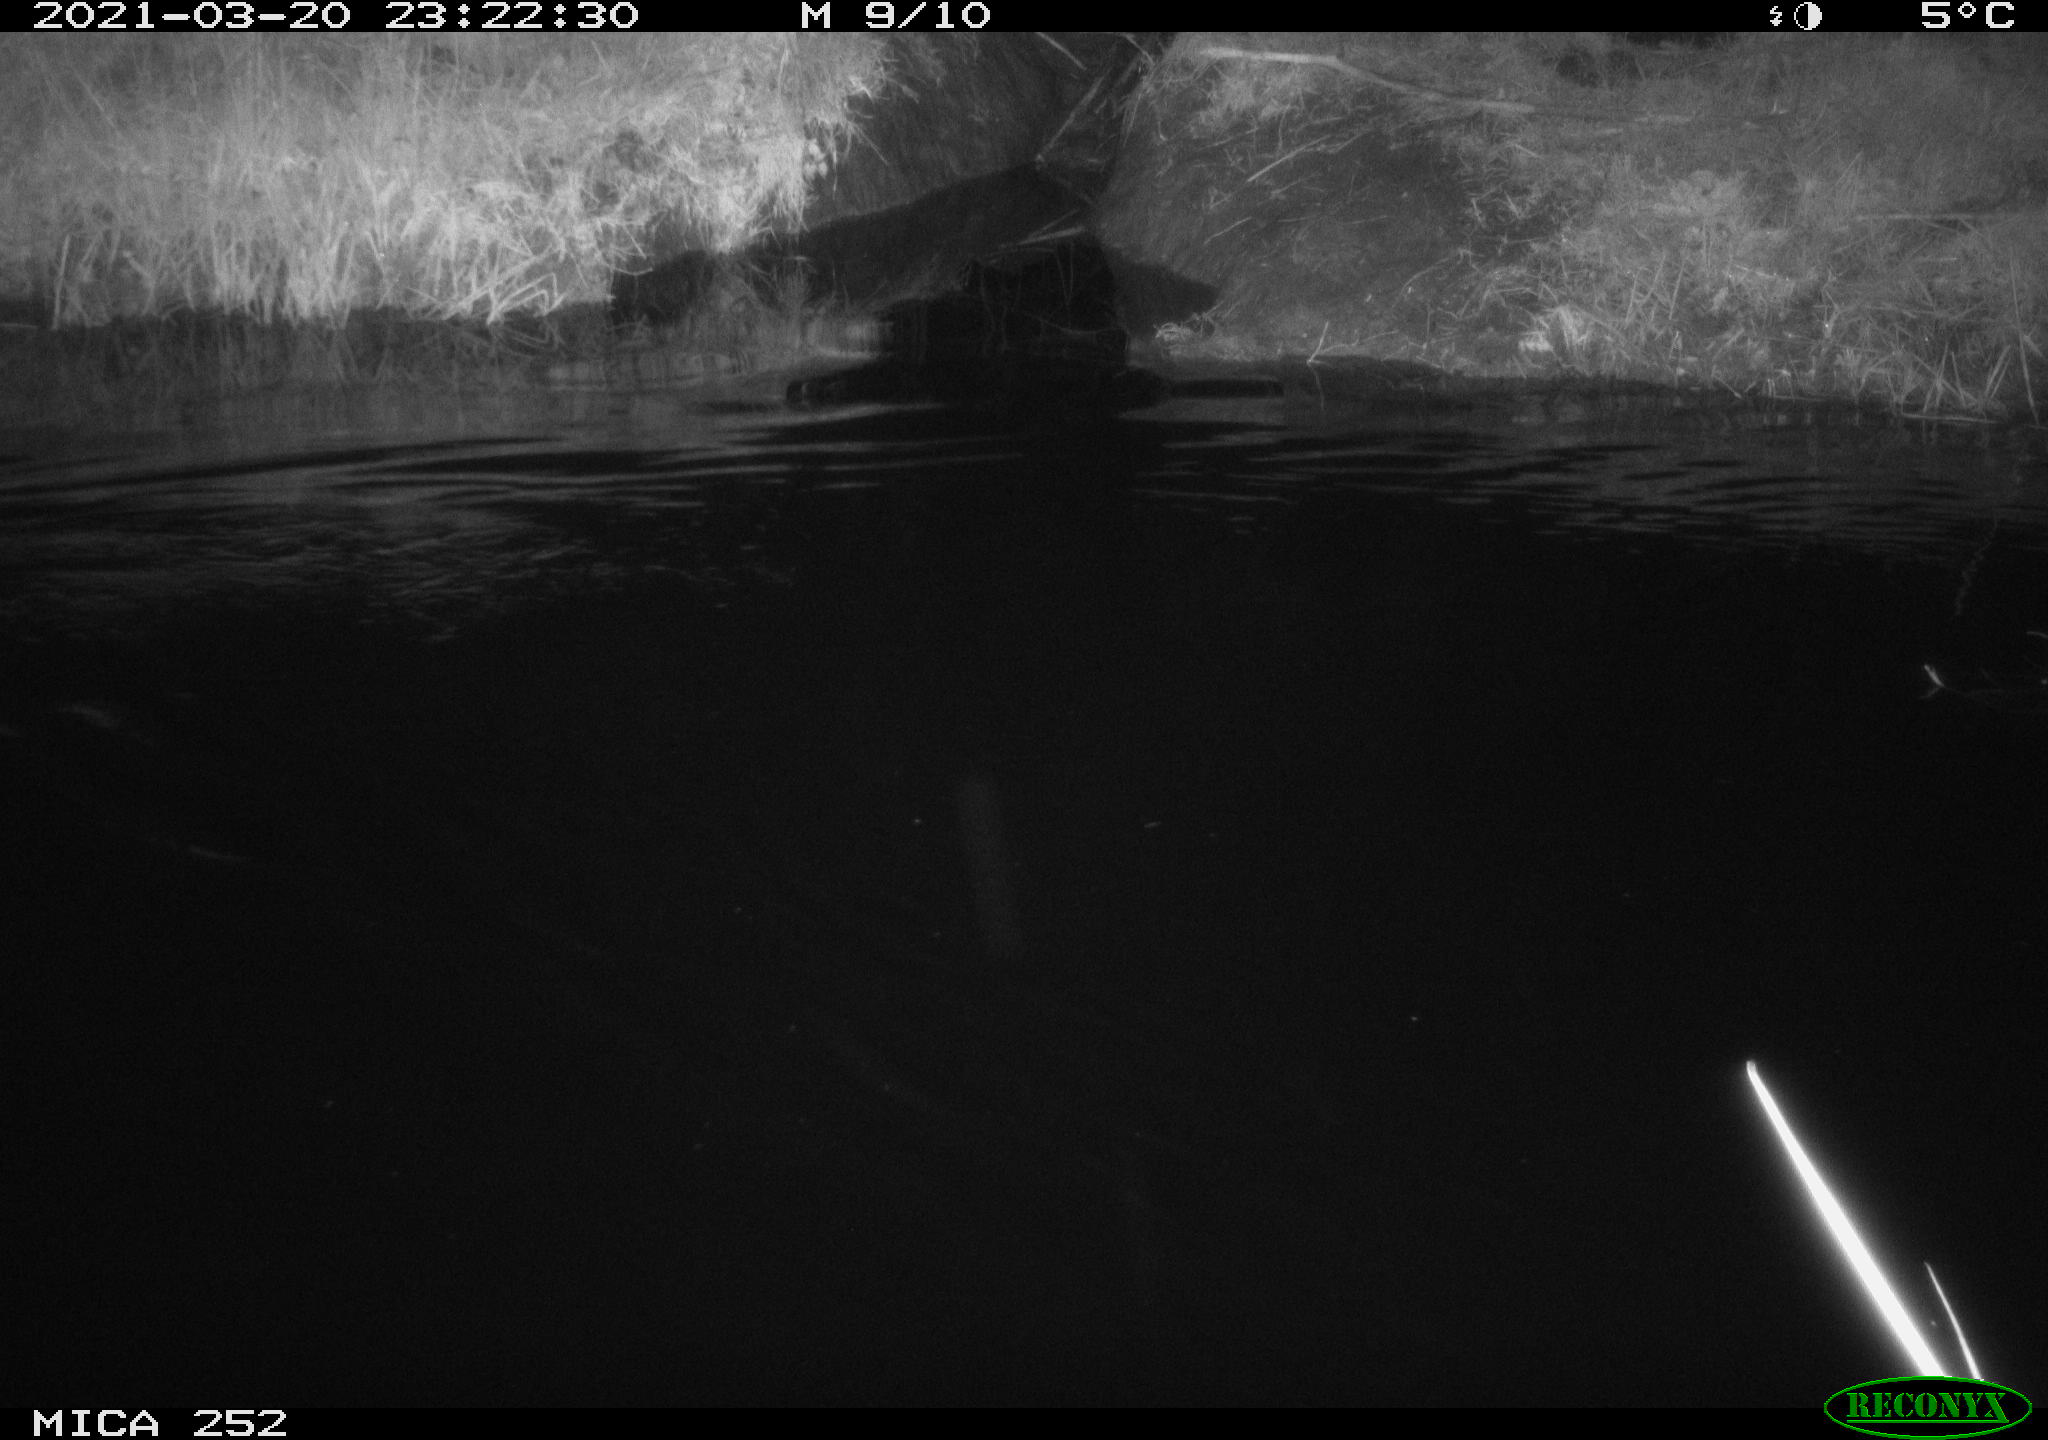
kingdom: Animalia
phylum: Chordata
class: Mammalia
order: Rodentia
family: Castoridae
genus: Castor
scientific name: Castor fiber
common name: Eurasian beaver
